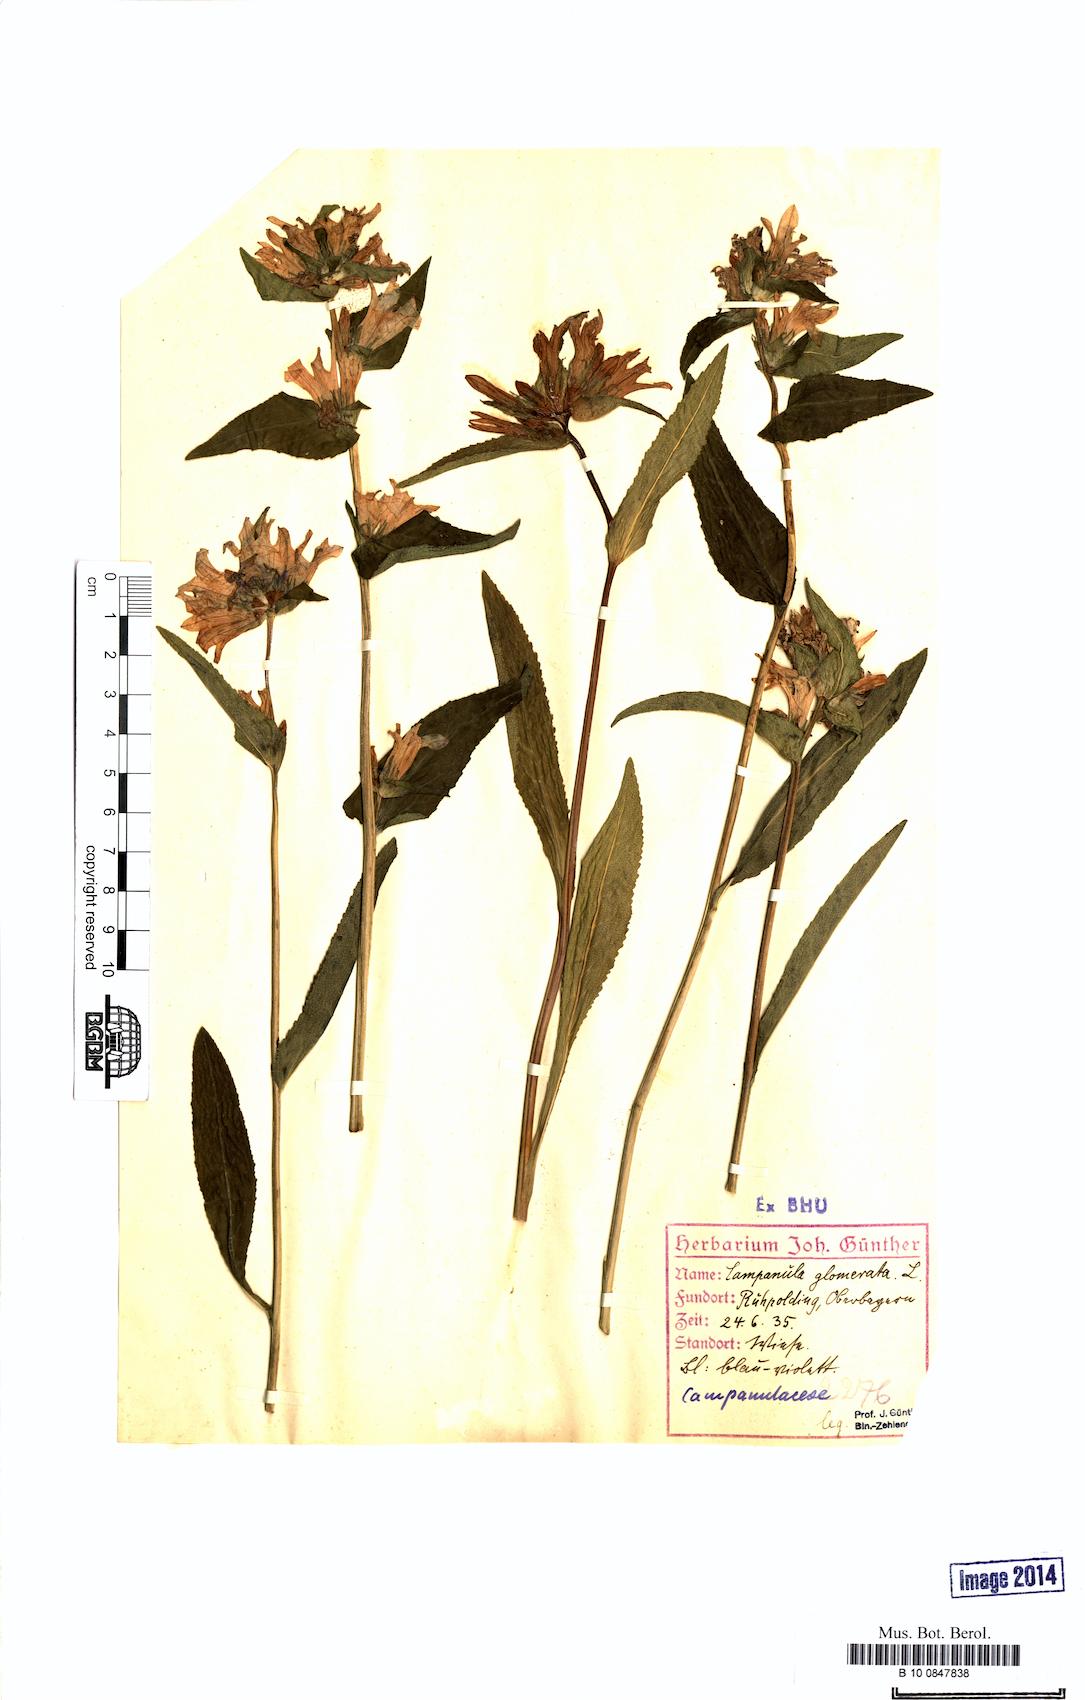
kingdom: Plantae
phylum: Tracheophyta
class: Magnoliopsida
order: Asterales
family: Campanulaceae
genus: Campanula
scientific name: Campanula glomerata
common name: Clustered bellflower
